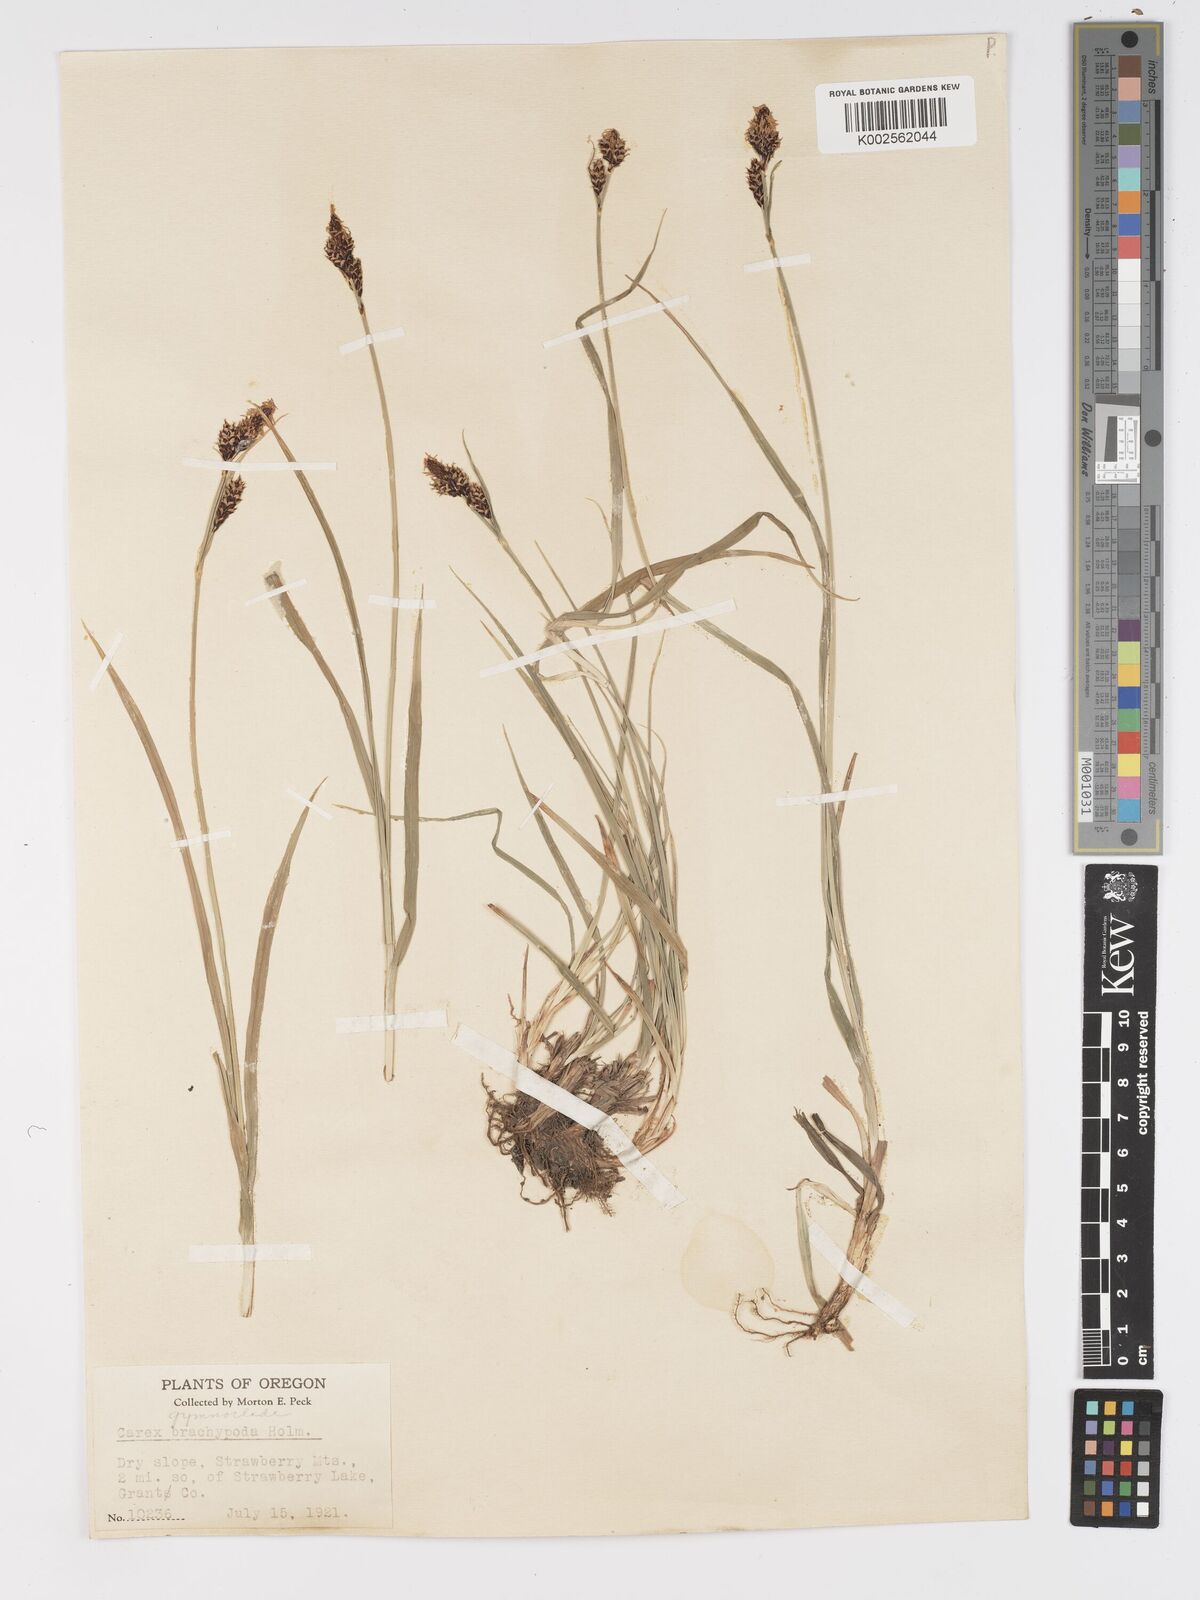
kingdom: Plantae
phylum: Tracheophyta
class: Liliopsida
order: Poales
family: Cyperaceae
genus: Carex
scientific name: Carex scopulorum
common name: Holm's rocky mountain sedge
